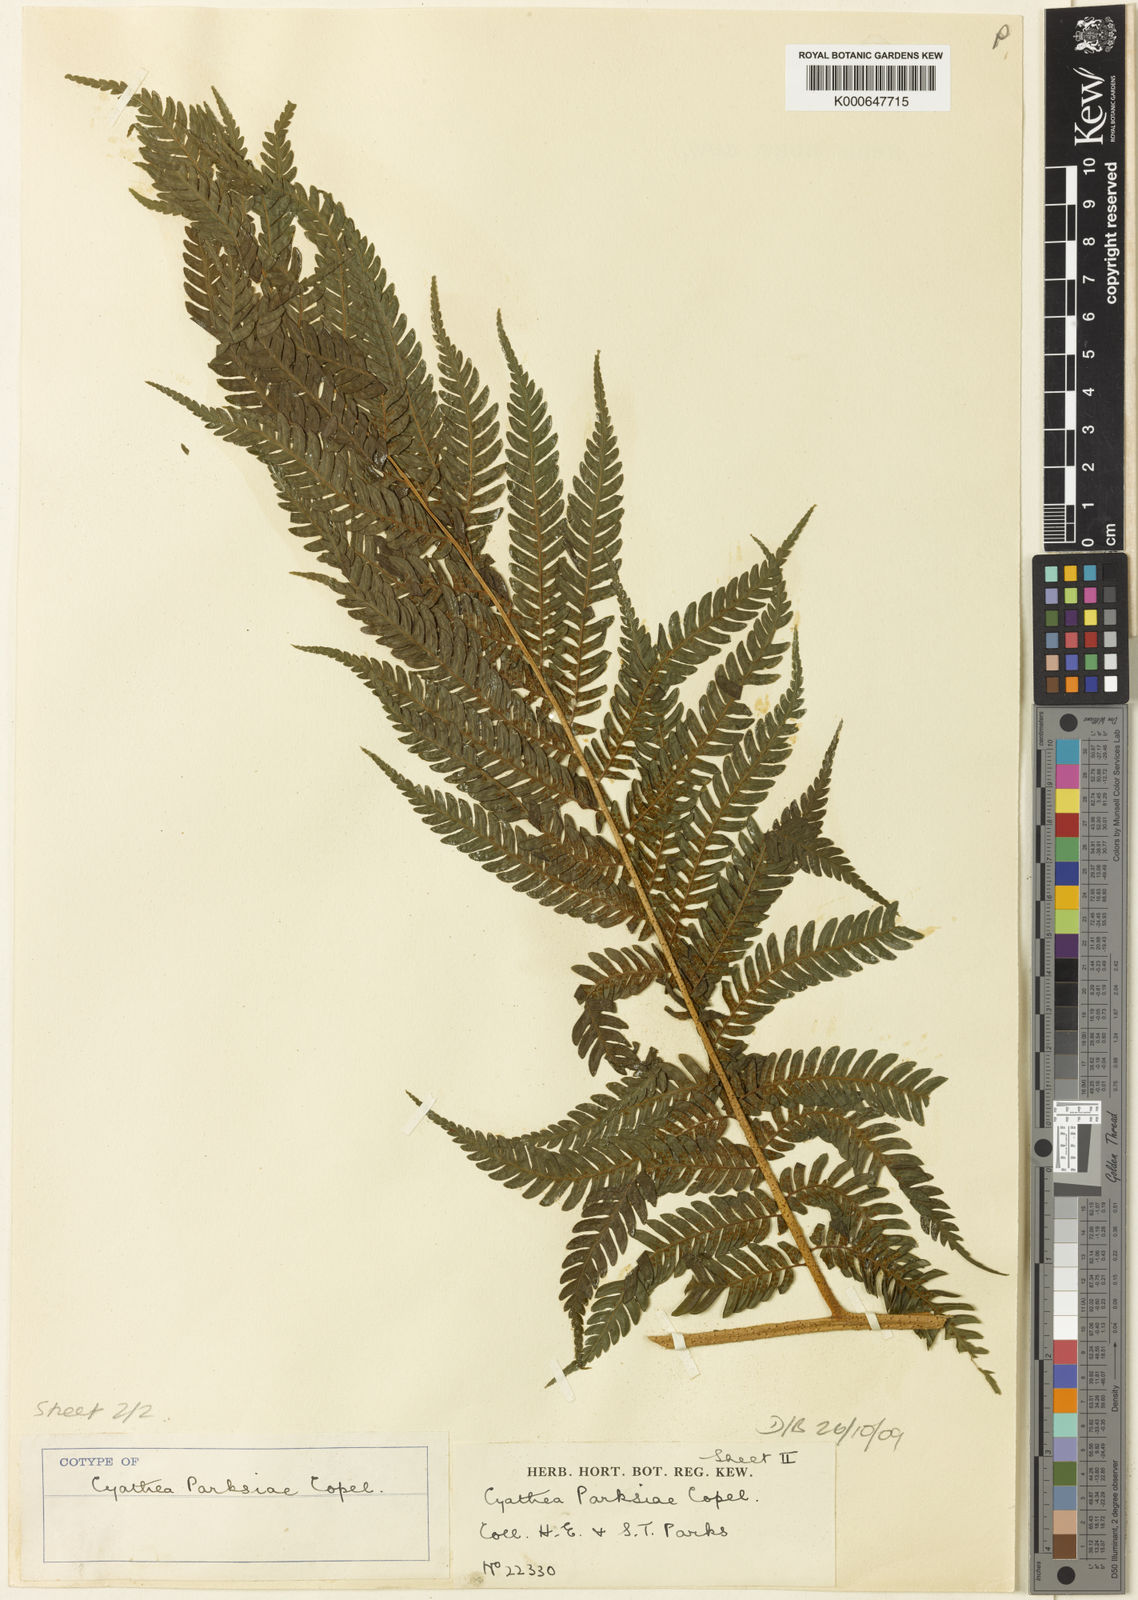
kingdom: Plantae
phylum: Tracheophyta
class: Polypodiopsida
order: Cyatheales
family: Cyatheaceae
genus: Sphaeropteris
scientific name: Sphaeropteris parksiae
